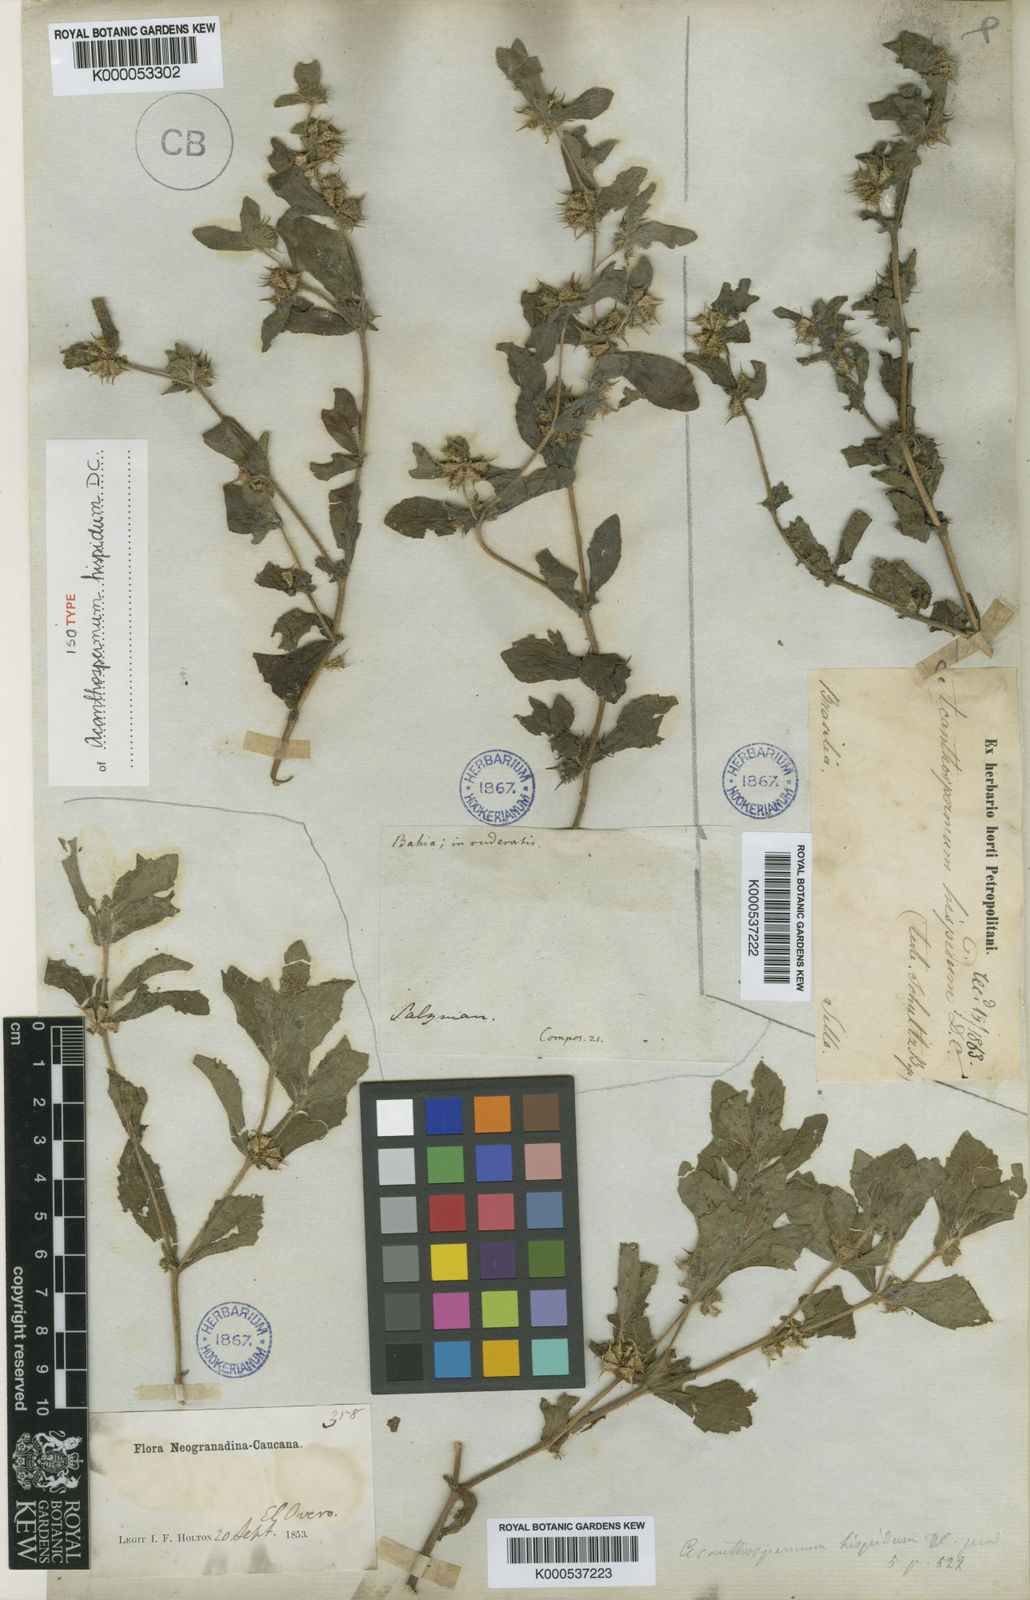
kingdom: Plantae
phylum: Tracheophyta
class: Magnoliopsida
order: Asterales
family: Asteraceae
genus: Acanthospermum
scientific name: Acanthospermum hispidum
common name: Hispid starbur
